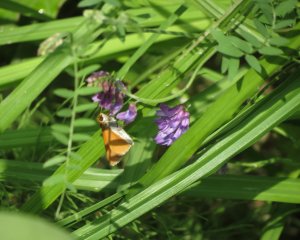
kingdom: Animalia
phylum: Arthropoda
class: Insecta
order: Lepidoptera
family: Hesperiidae
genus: Euphyes
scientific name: Euphyes bimacula
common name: Two-spotted Skipper
